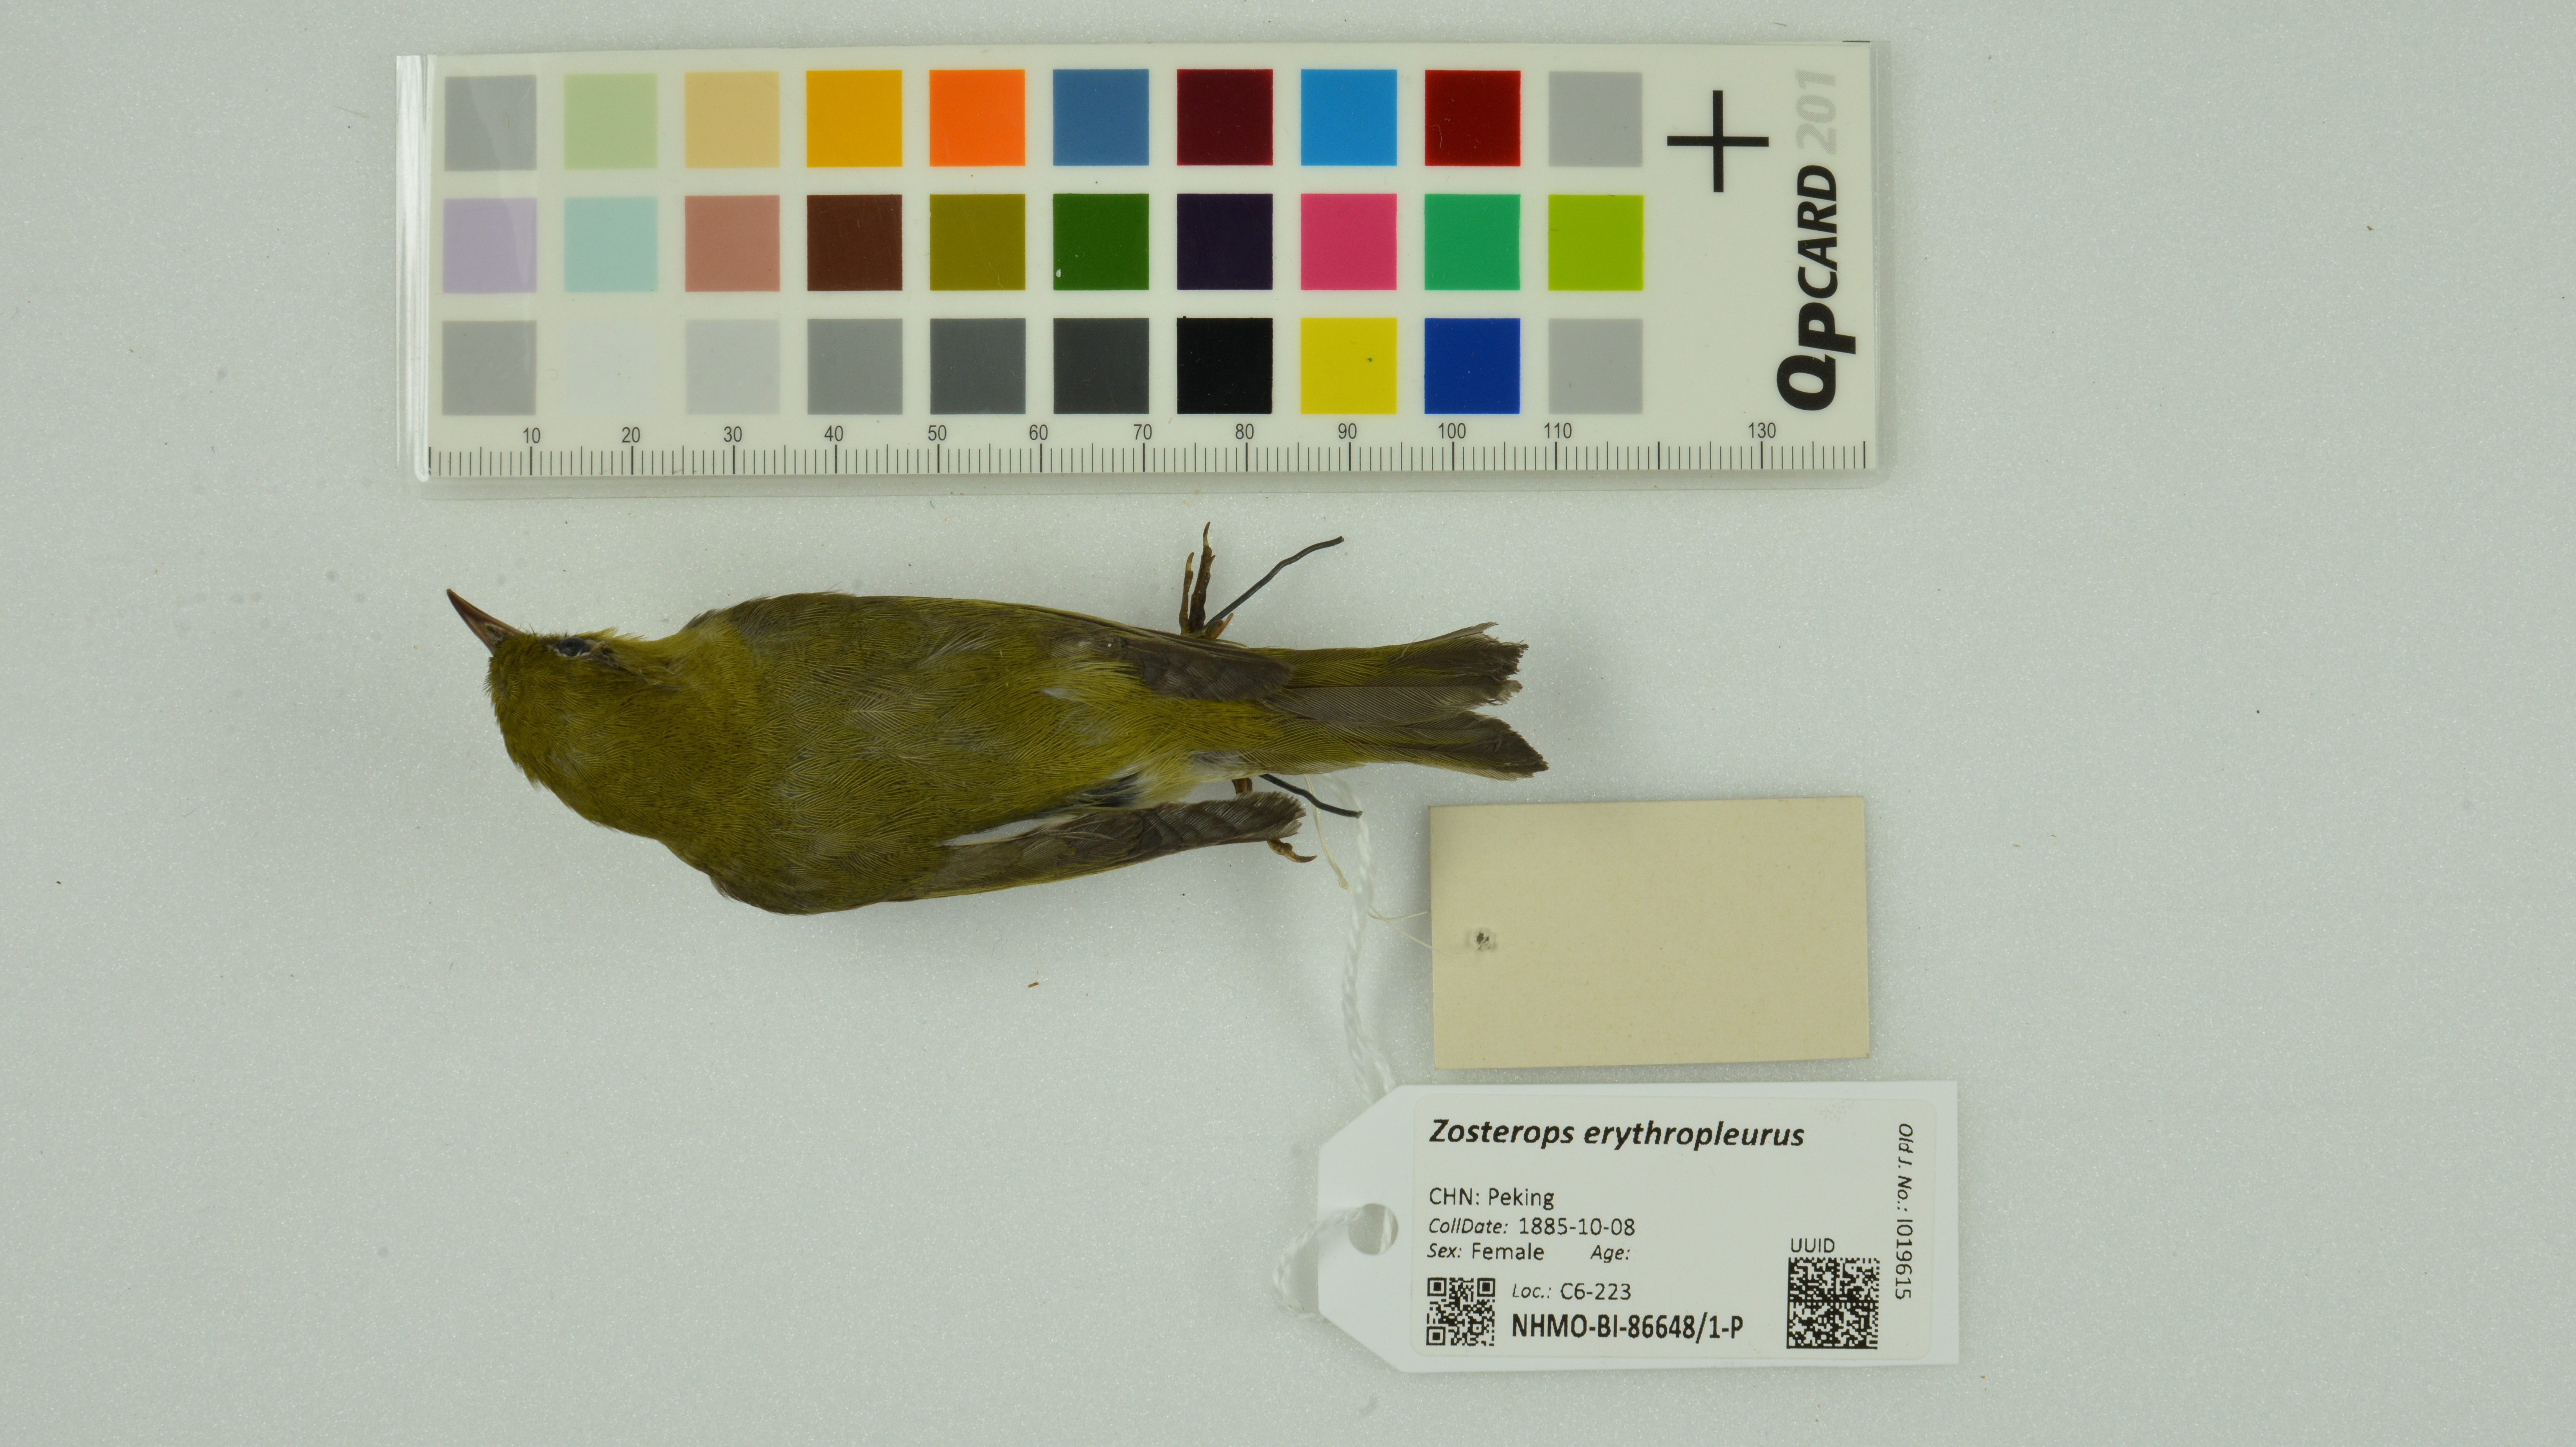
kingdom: Animalia
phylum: Chordata
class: Aves
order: Passeriformes
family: Zosteropidae
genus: Zosterops
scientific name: Zosterops erythropleurus
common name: Chestnut-flanked white-eye
